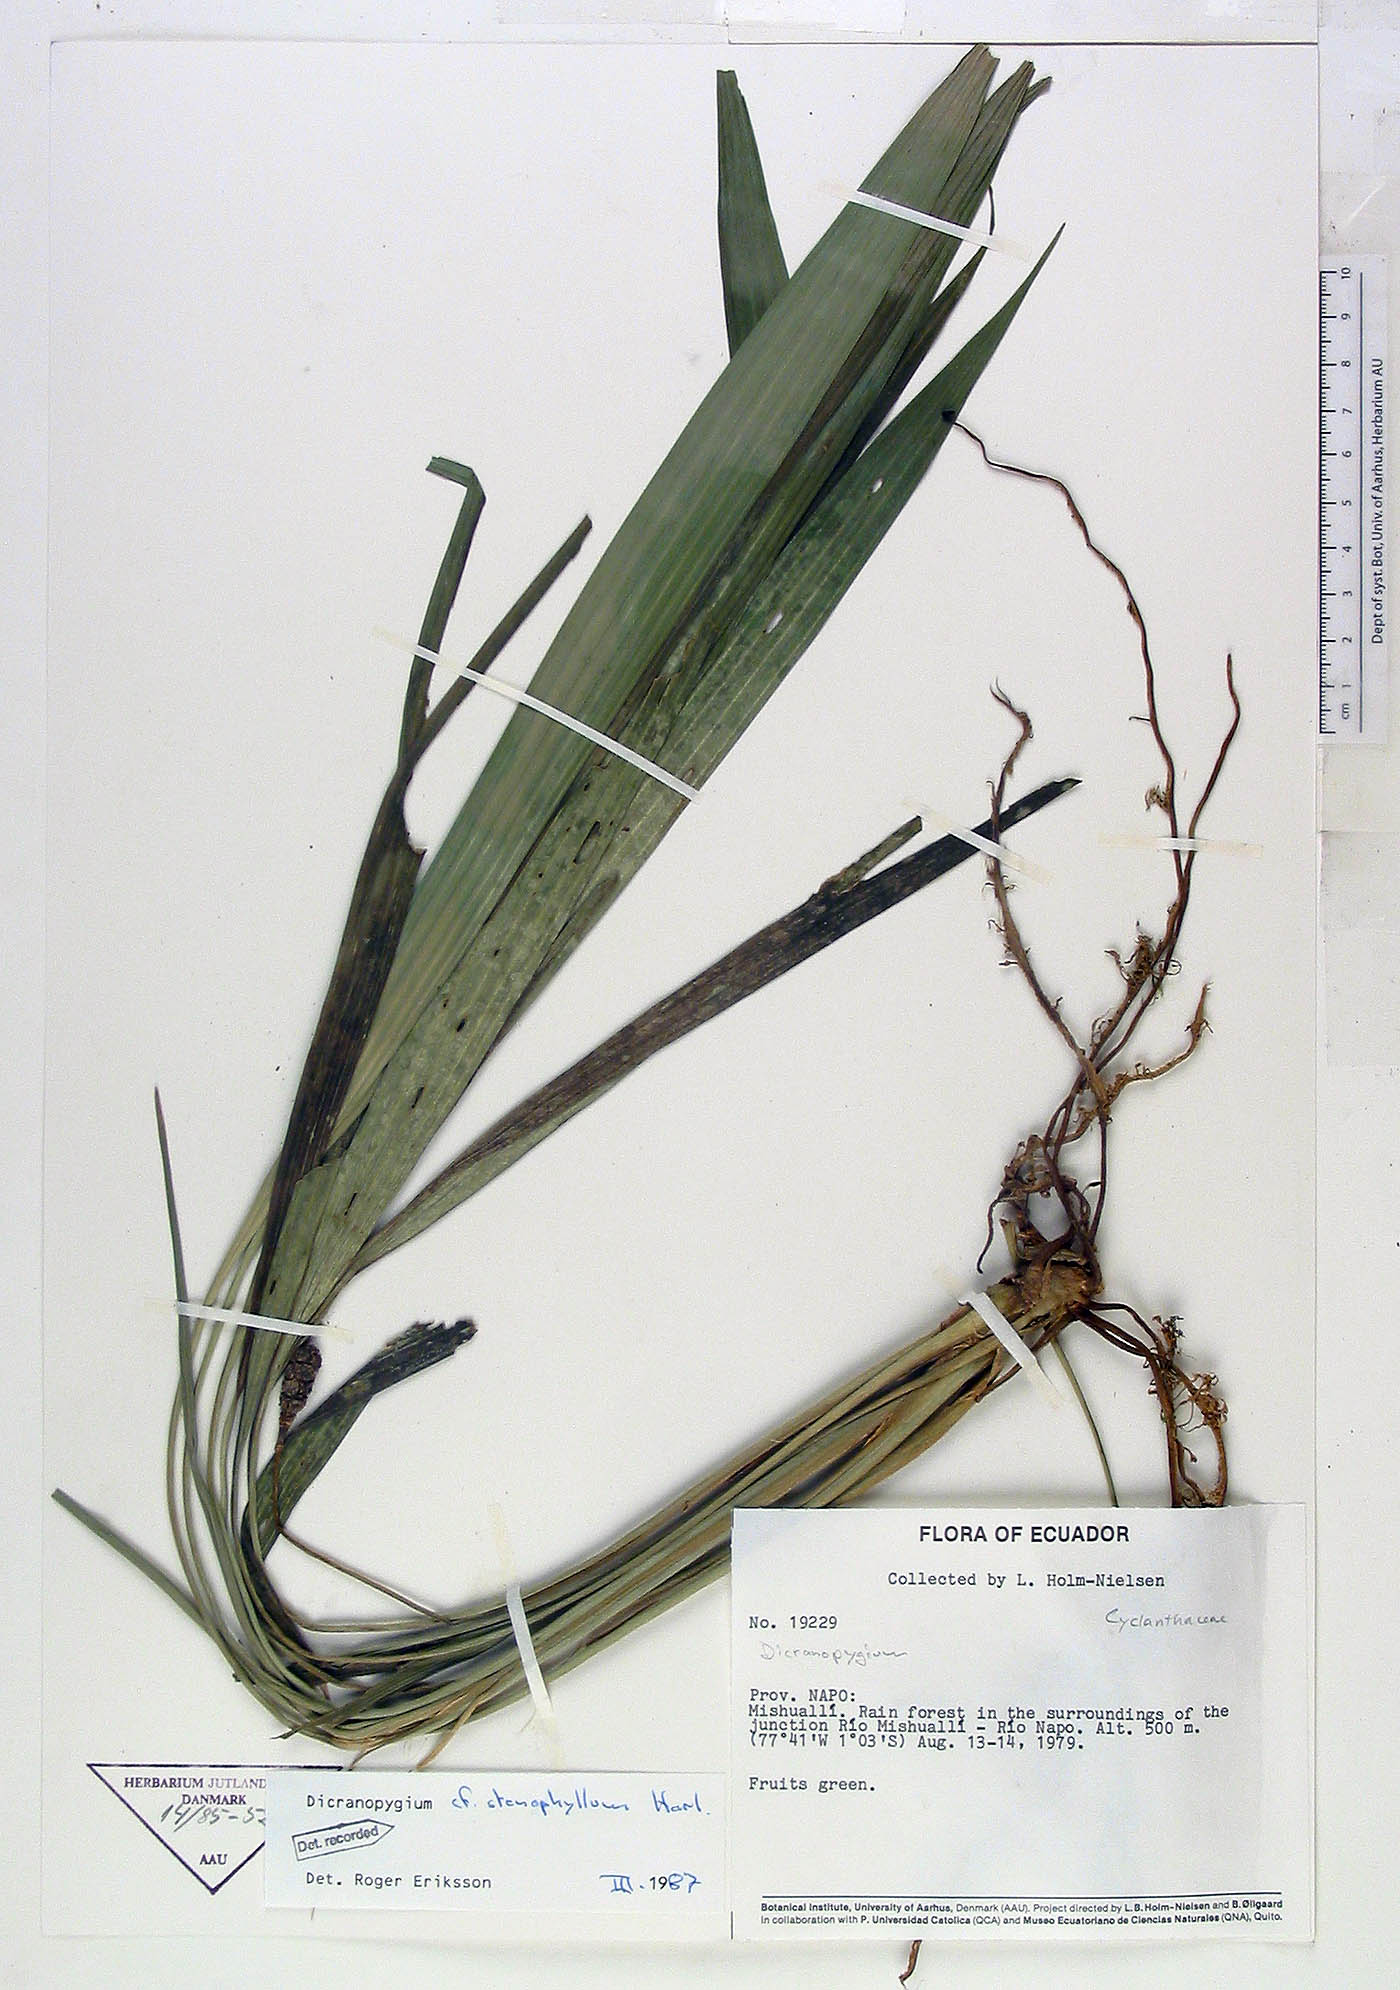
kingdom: Plantae
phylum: Tracheophyta
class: Liliopsida
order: Pandanales
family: Cyclanthaceae
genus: Dicranopygium
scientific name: Dicranopygium stenophyllum
